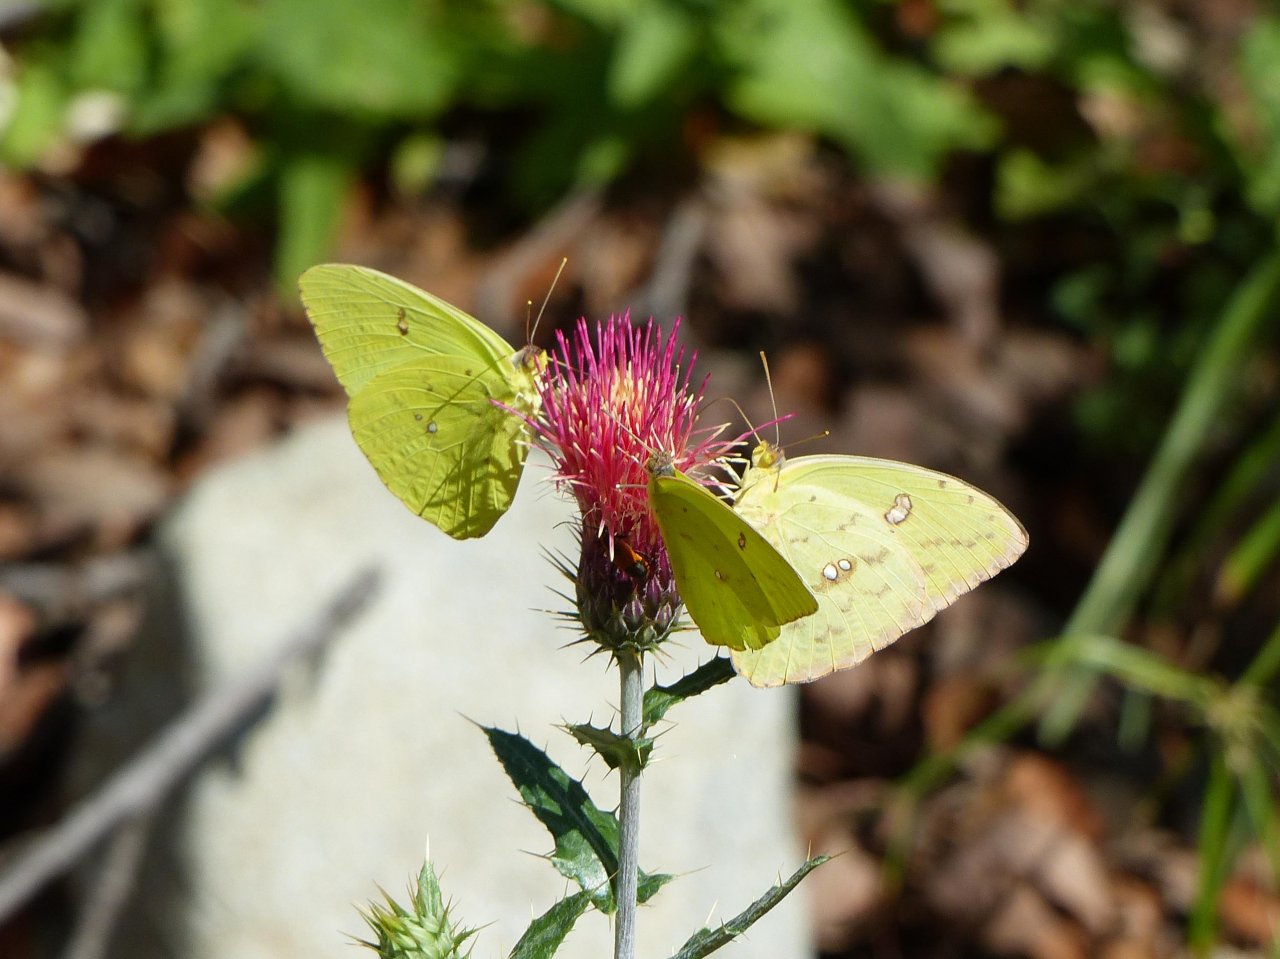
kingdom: Animalia
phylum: Arthropoda
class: Insecta
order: Lepidoptera
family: Pieridae
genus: Phoebis
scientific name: Phoebis sennae
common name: Cloudless Sulphur
